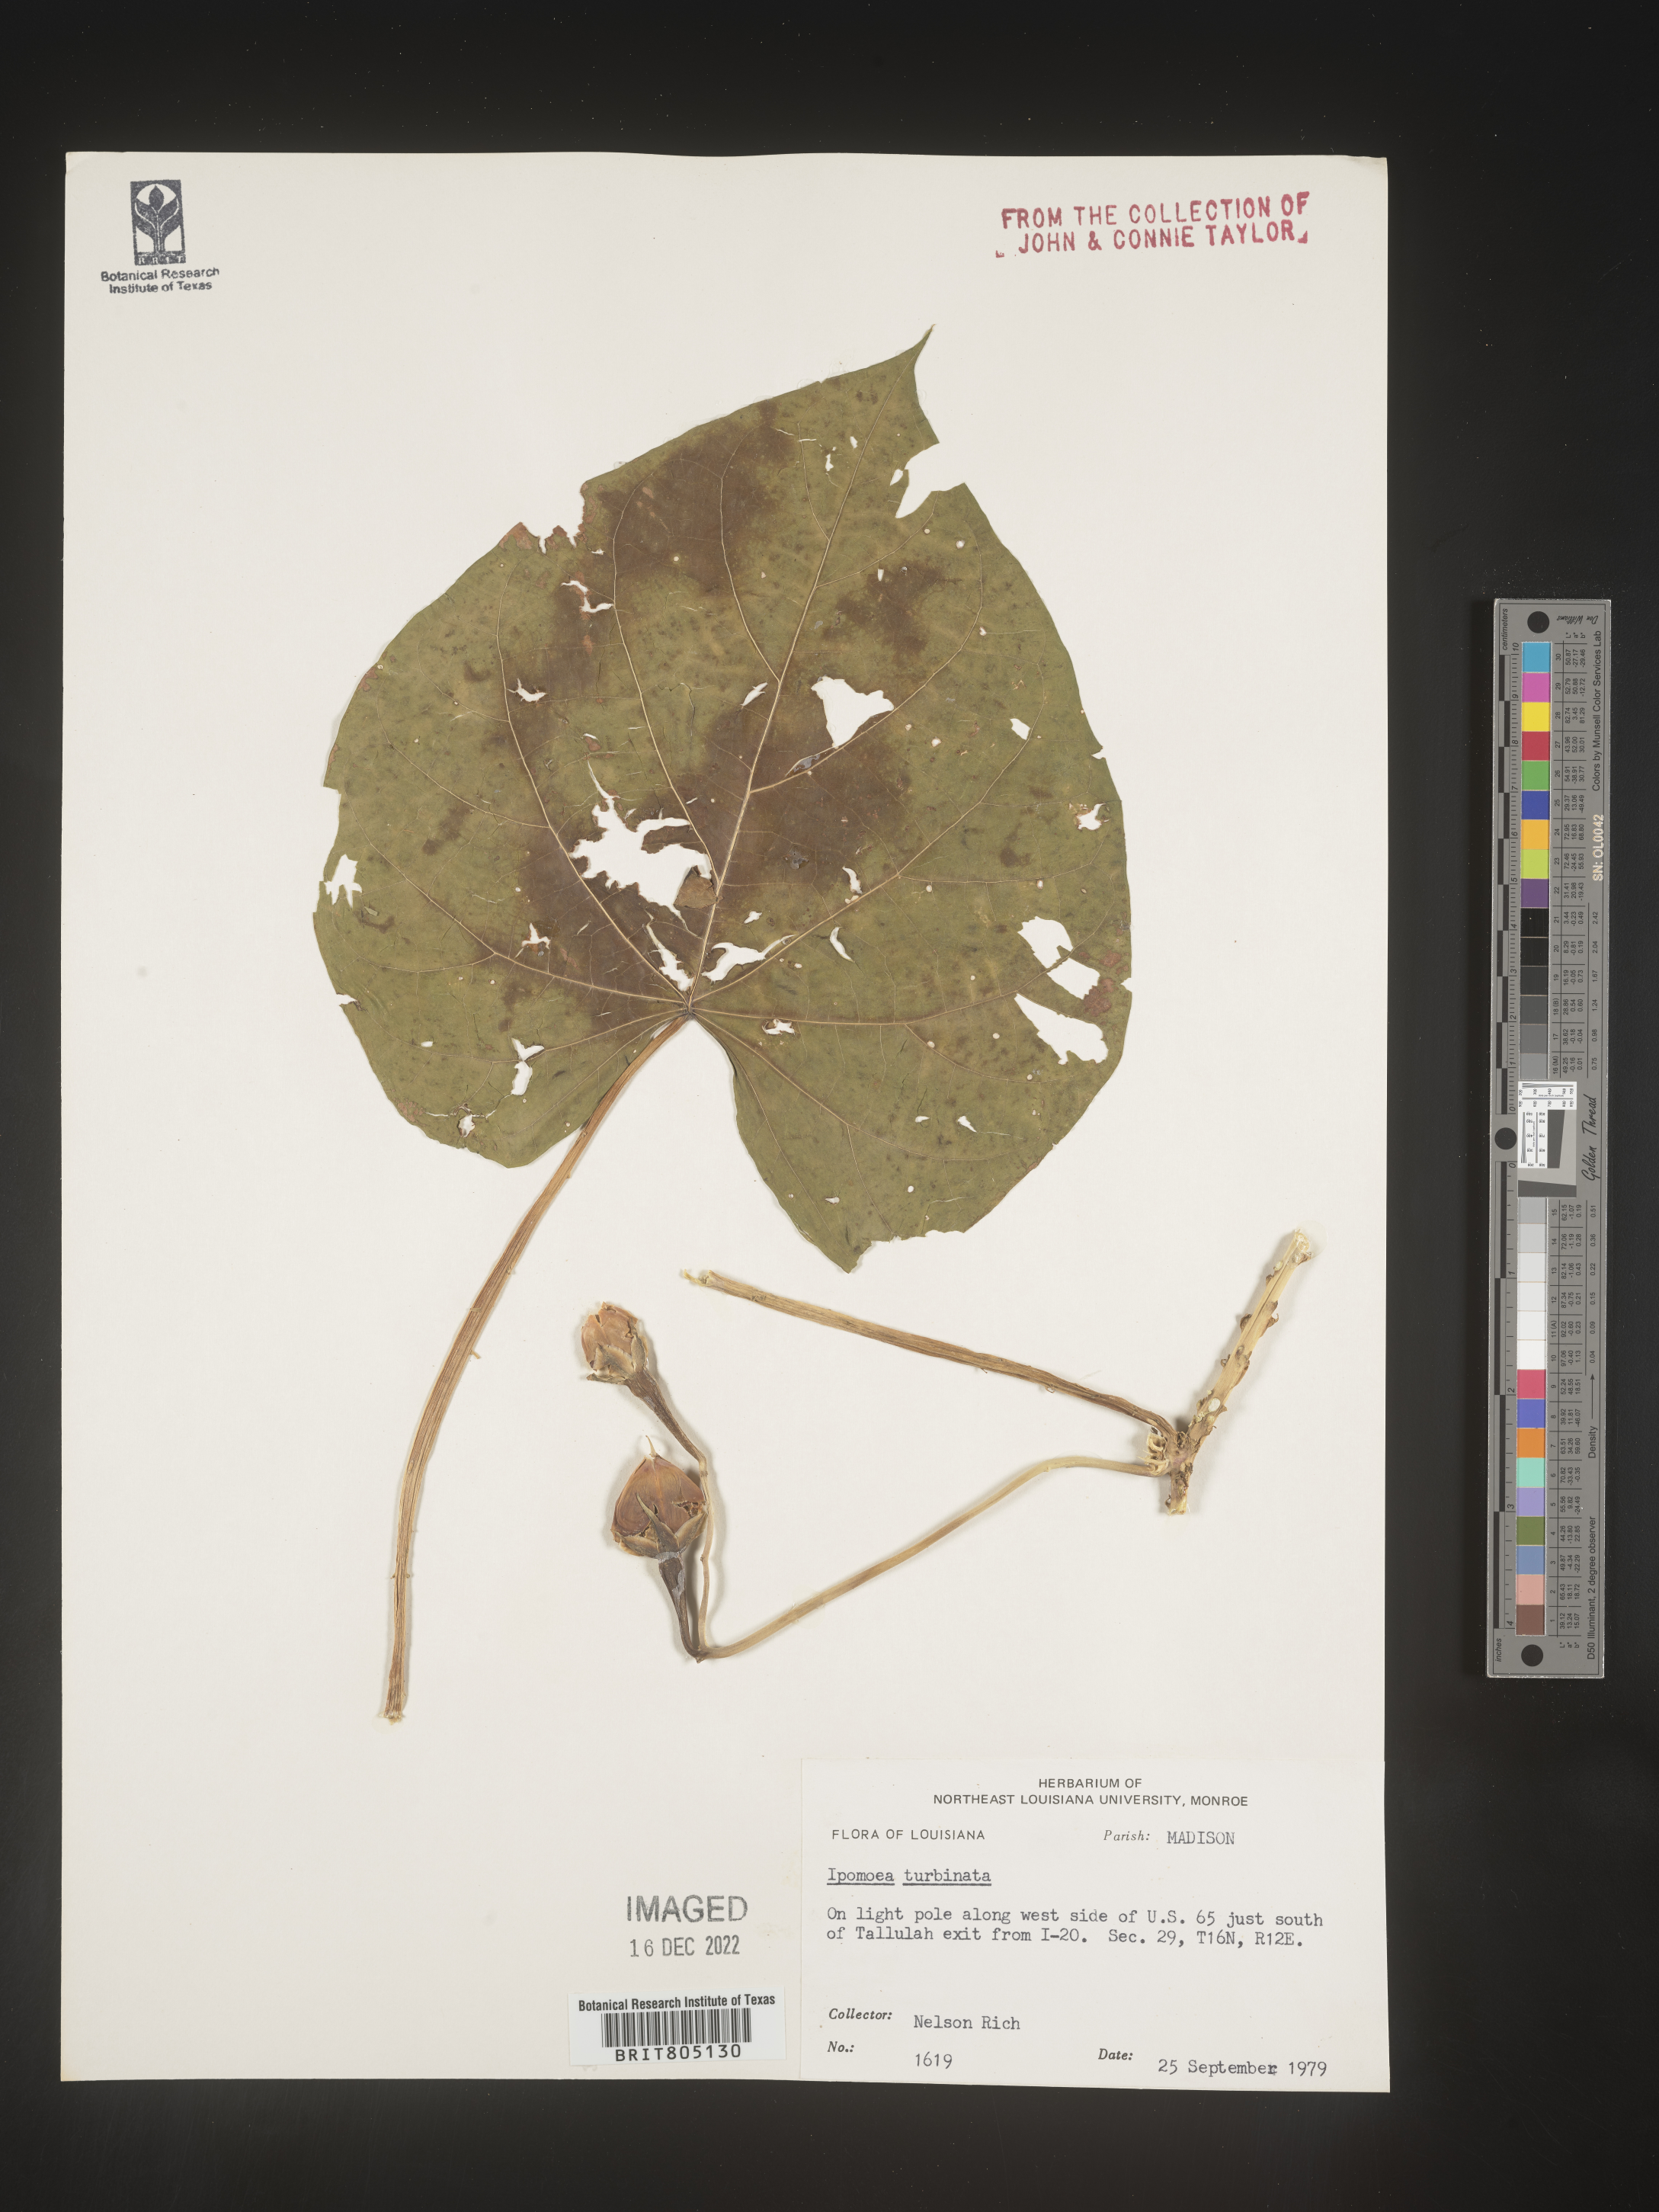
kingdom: Plantae
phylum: Tracheophyta
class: Magnoliopsida
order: Solanales
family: Convolvulaceae
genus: Ipomoea
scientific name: Ipomoea muricata
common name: Lilac-bell
